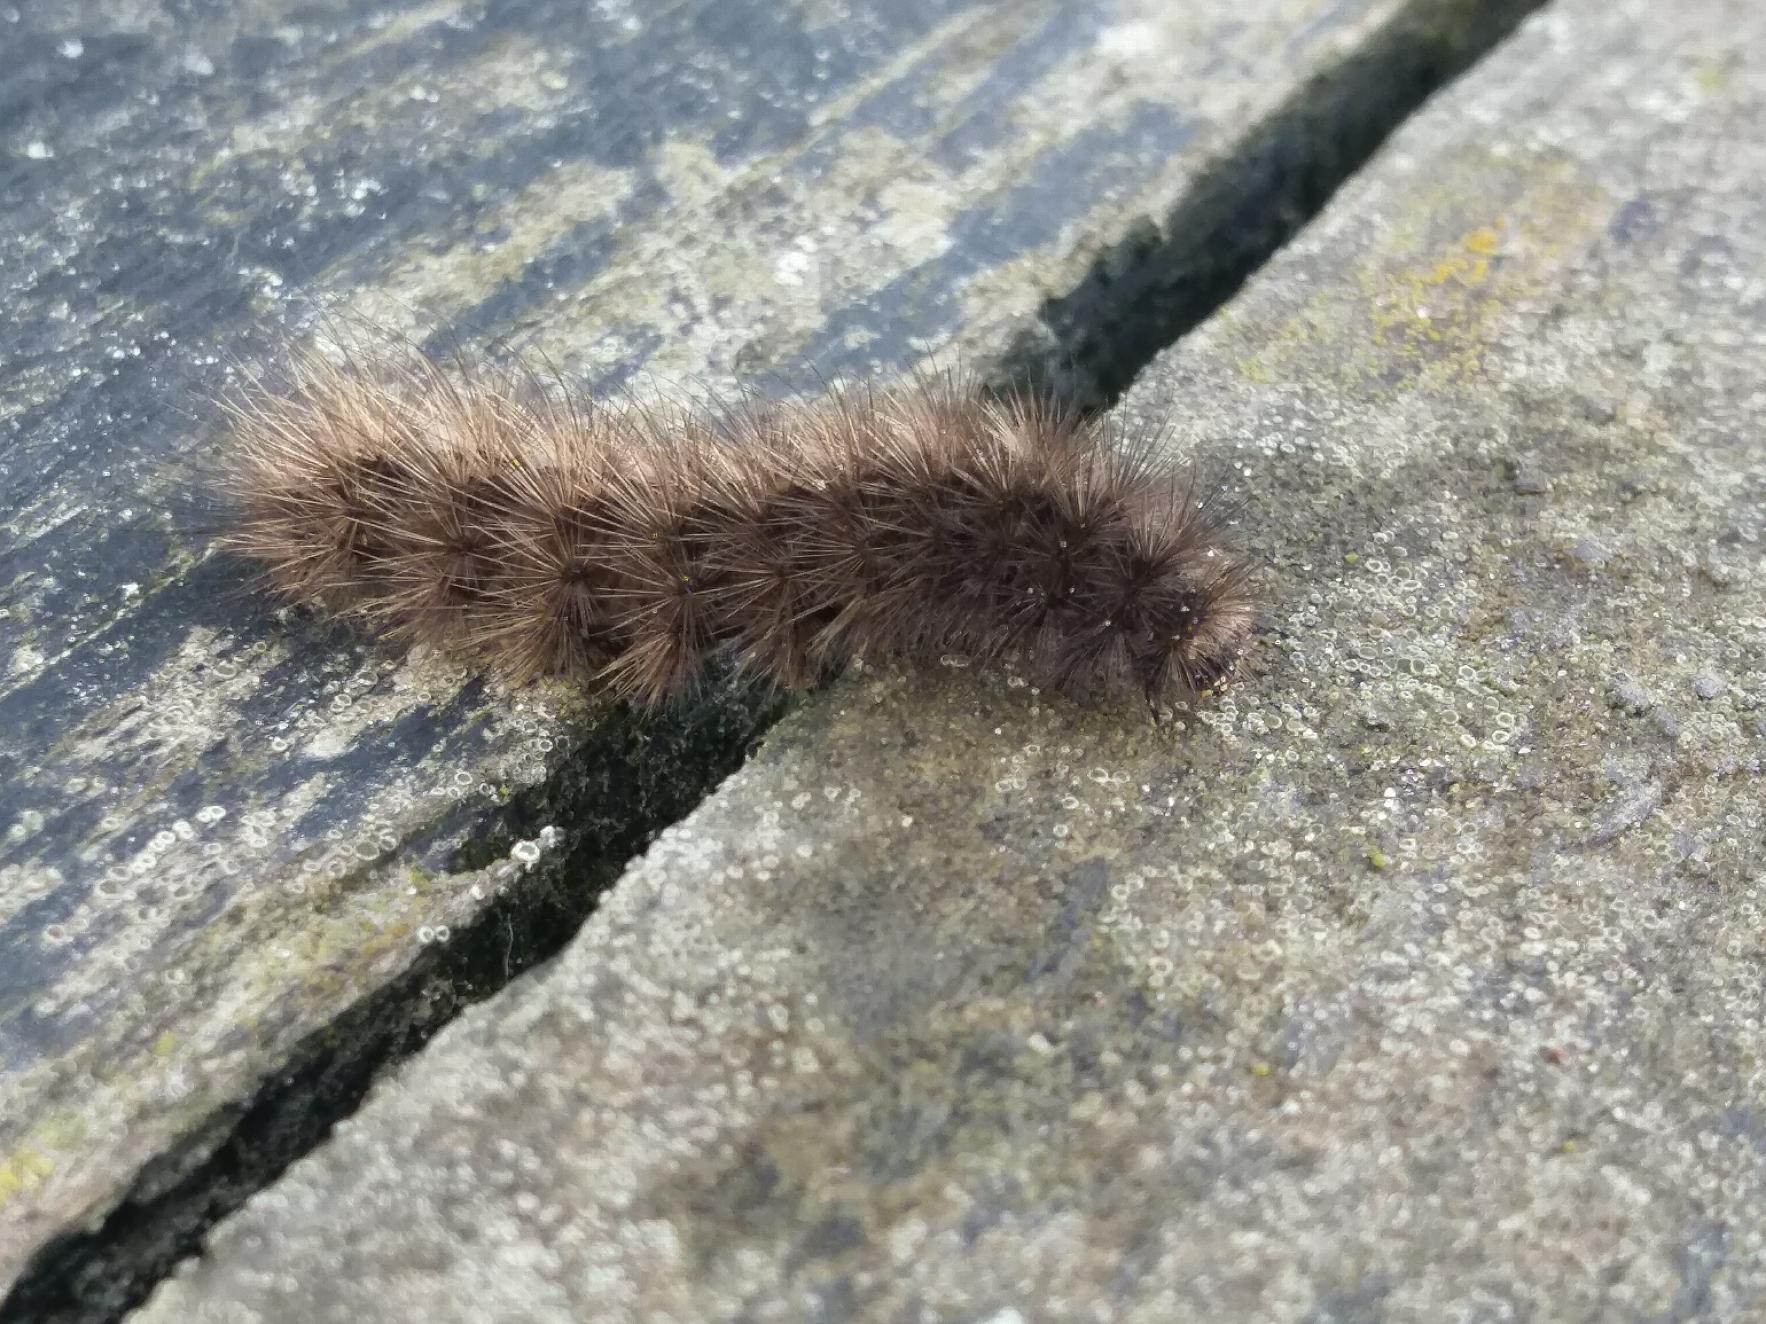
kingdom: Animalia
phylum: Arthropoda
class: Insecta
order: Lepidoptera
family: Erebidae
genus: Phragmatobia
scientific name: Phragmatobia fuliginosa
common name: Kanelbjørn
